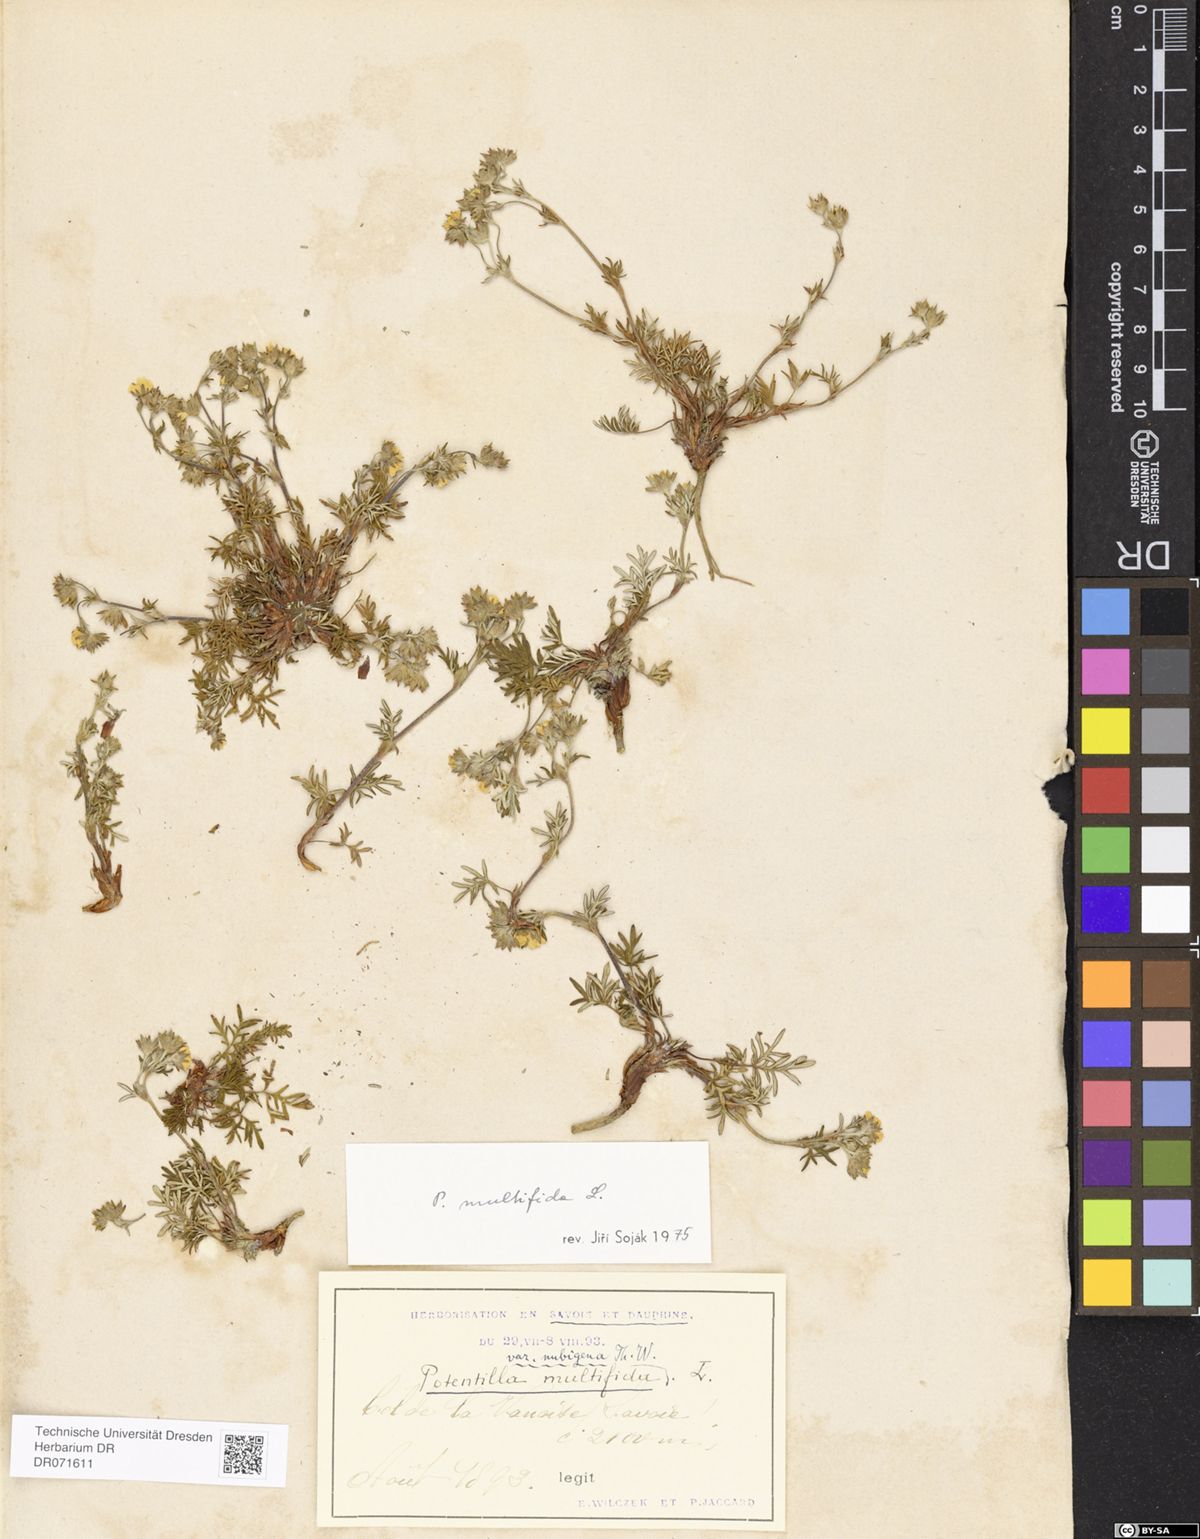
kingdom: Plantae
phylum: Tracheophyta
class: Magnoliopsida
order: Rosales
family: Rosaceae
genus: Potentilla
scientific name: Potentilla multifida
